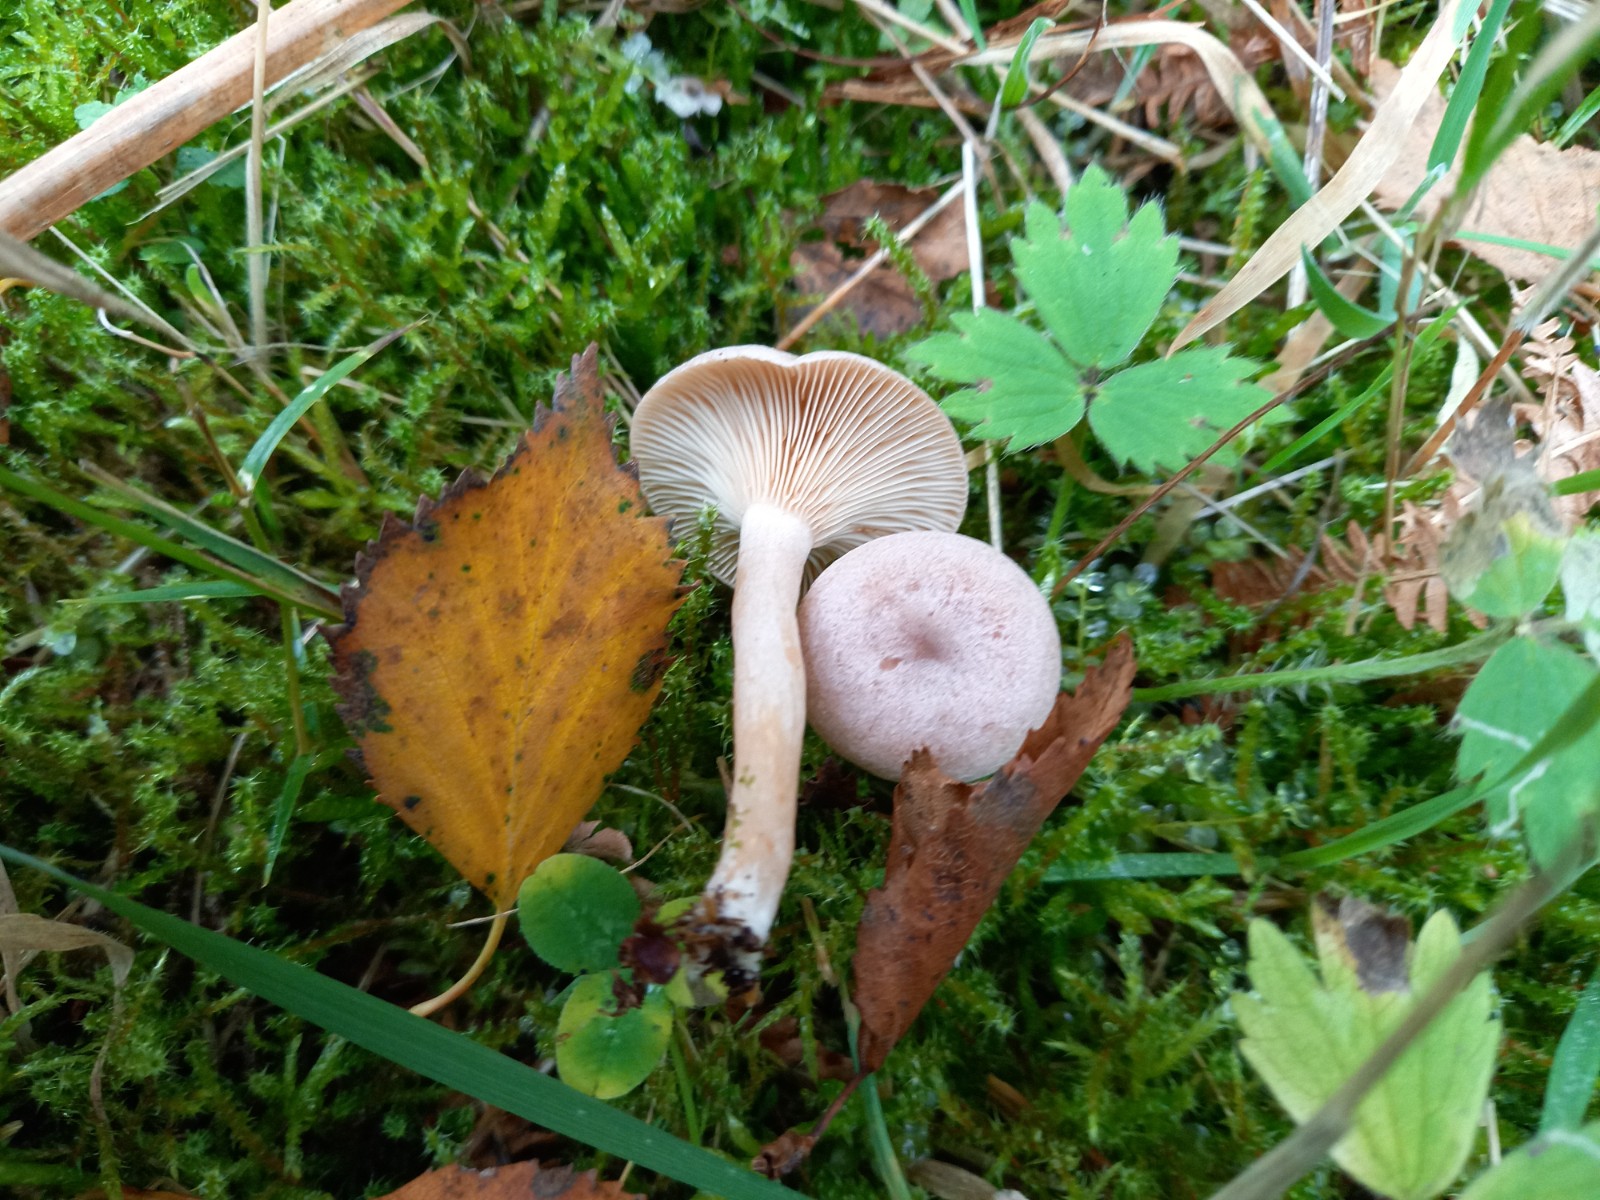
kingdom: Fungi
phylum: Basidiomycota
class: Agaricomycetes
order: Russulales
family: Russulaceae
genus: Lactarius
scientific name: Lactarius glyciosmus
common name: kokos-mælkehat
